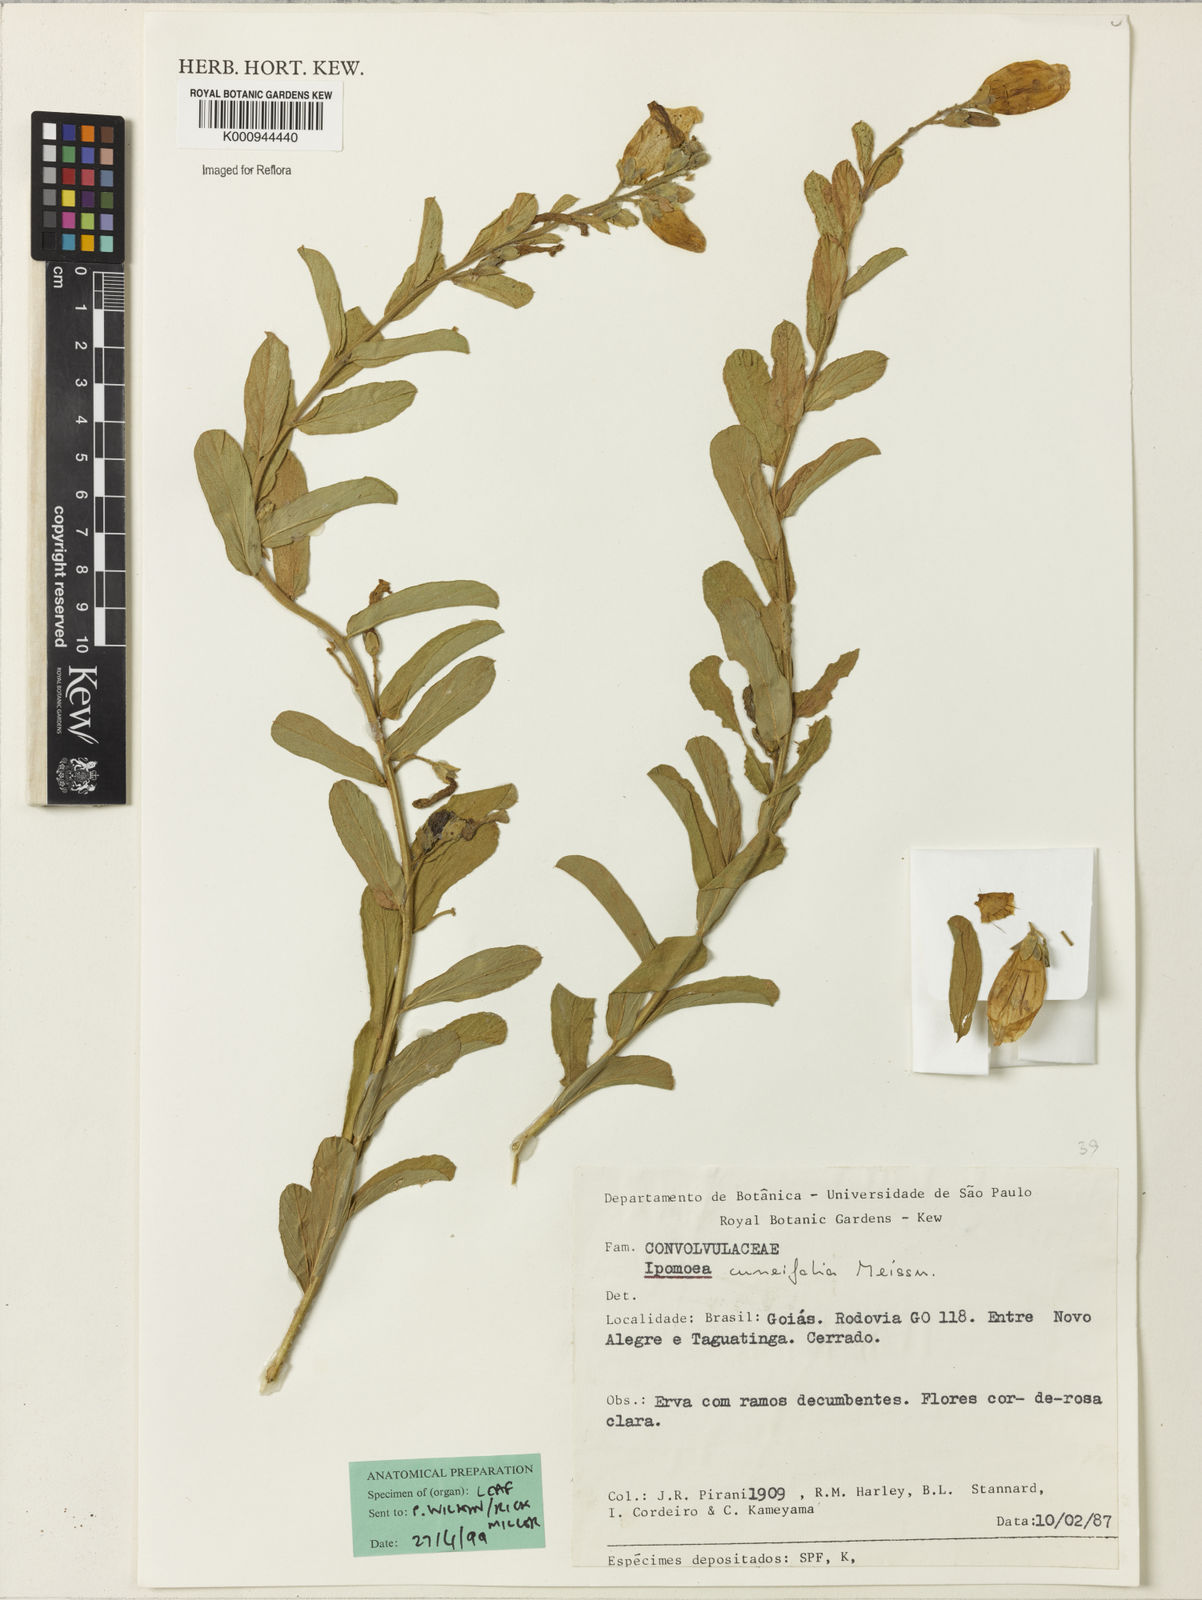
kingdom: Plantae
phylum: Tracheophyta
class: Magnoliopsida
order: Solanales
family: Convolvulaceae
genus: Ipomoea
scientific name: Ipomoea cuneifolia
